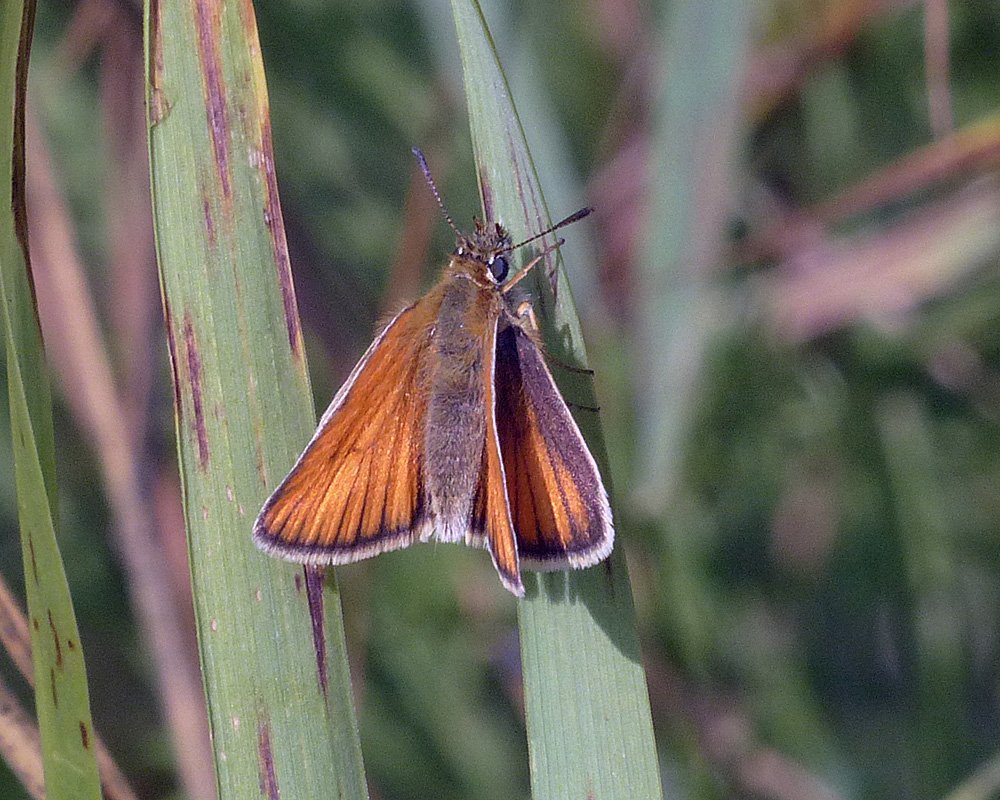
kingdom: Animalia
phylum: Arthropoda
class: Insecta
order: Lepidoptera
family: Hesperiidae
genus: Thymelicus
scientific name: Thymelicus lineola
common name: European Skipper
